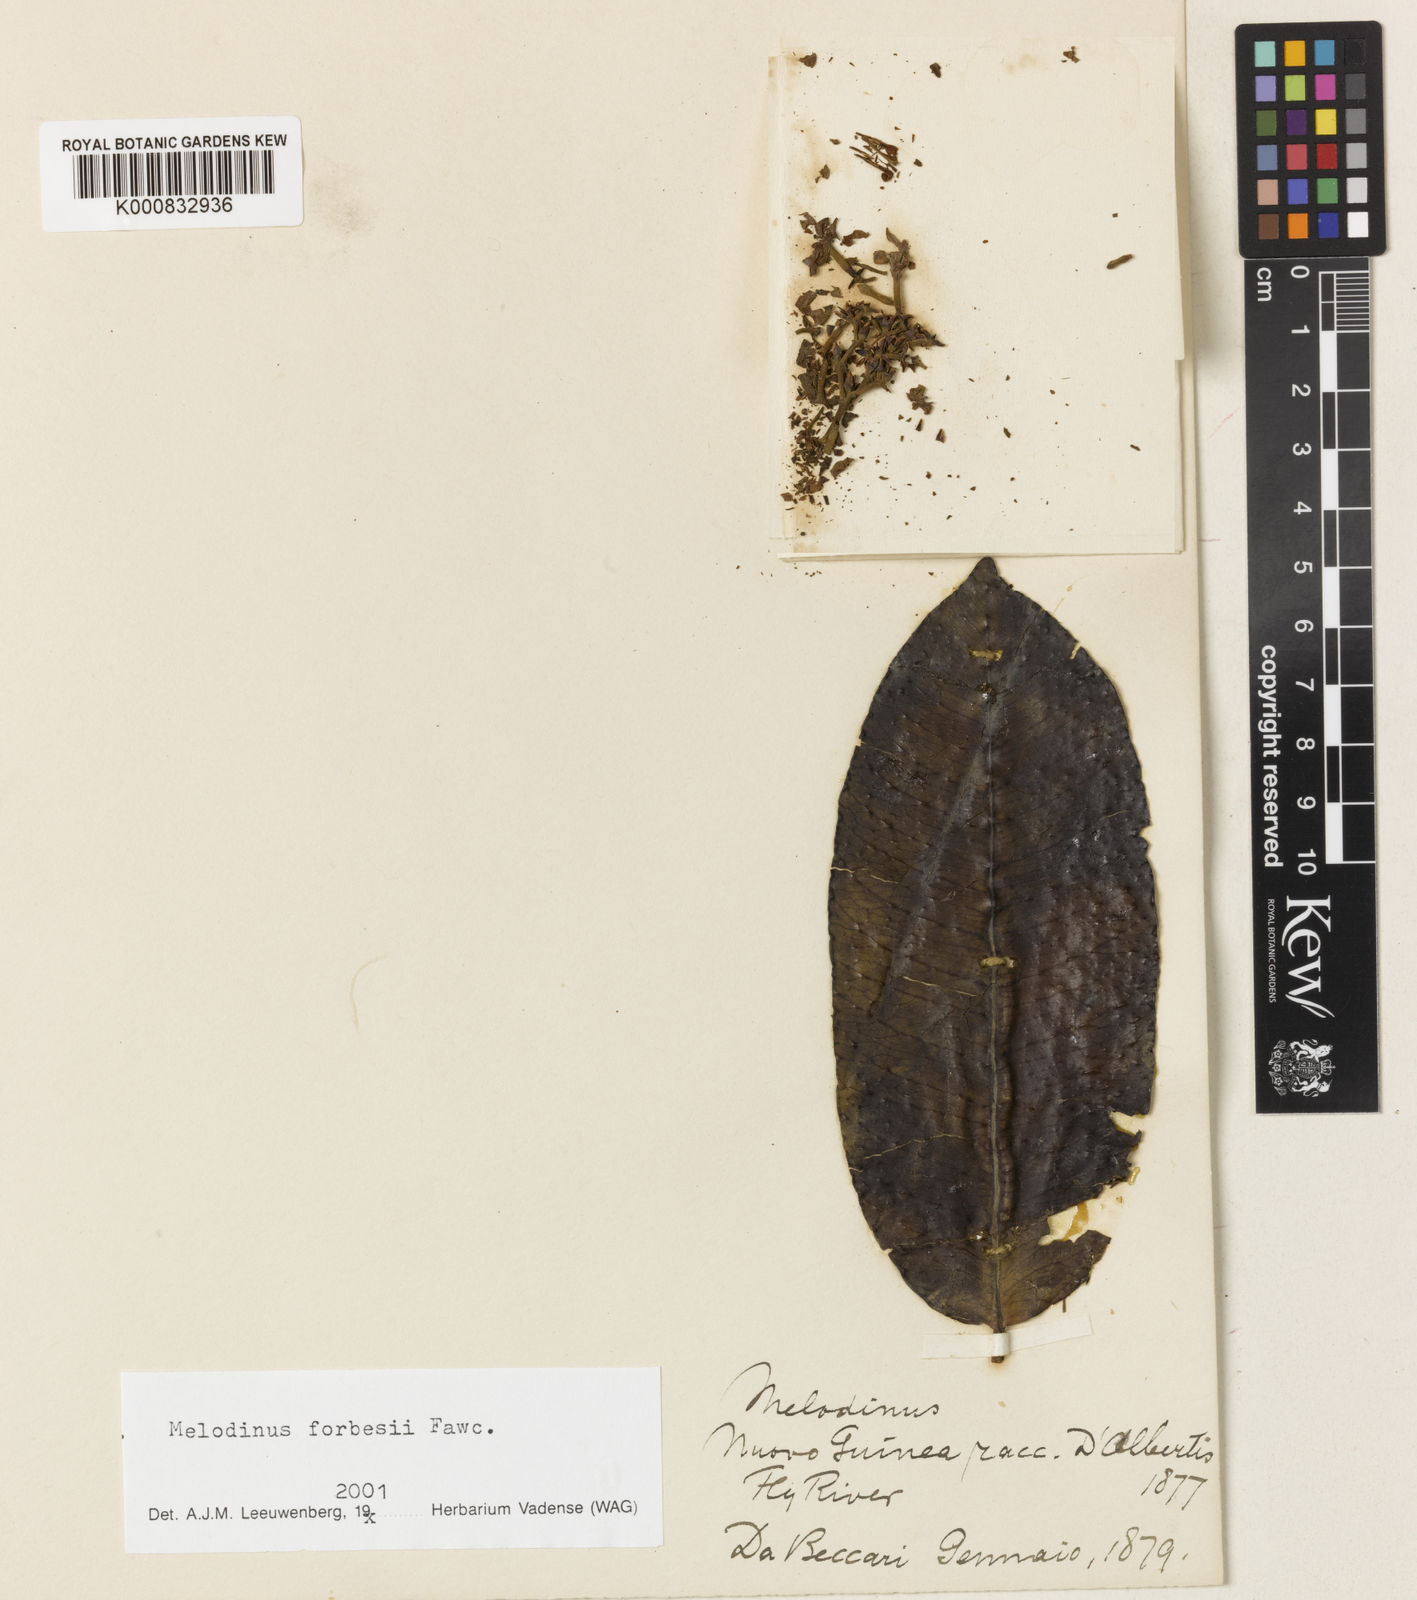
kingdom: Plantae
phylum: Tracheophyta
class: Magnoliopsida
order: Gentianales
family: Apocynaceae
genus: Melodinus
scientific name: Melodinus forbesii
